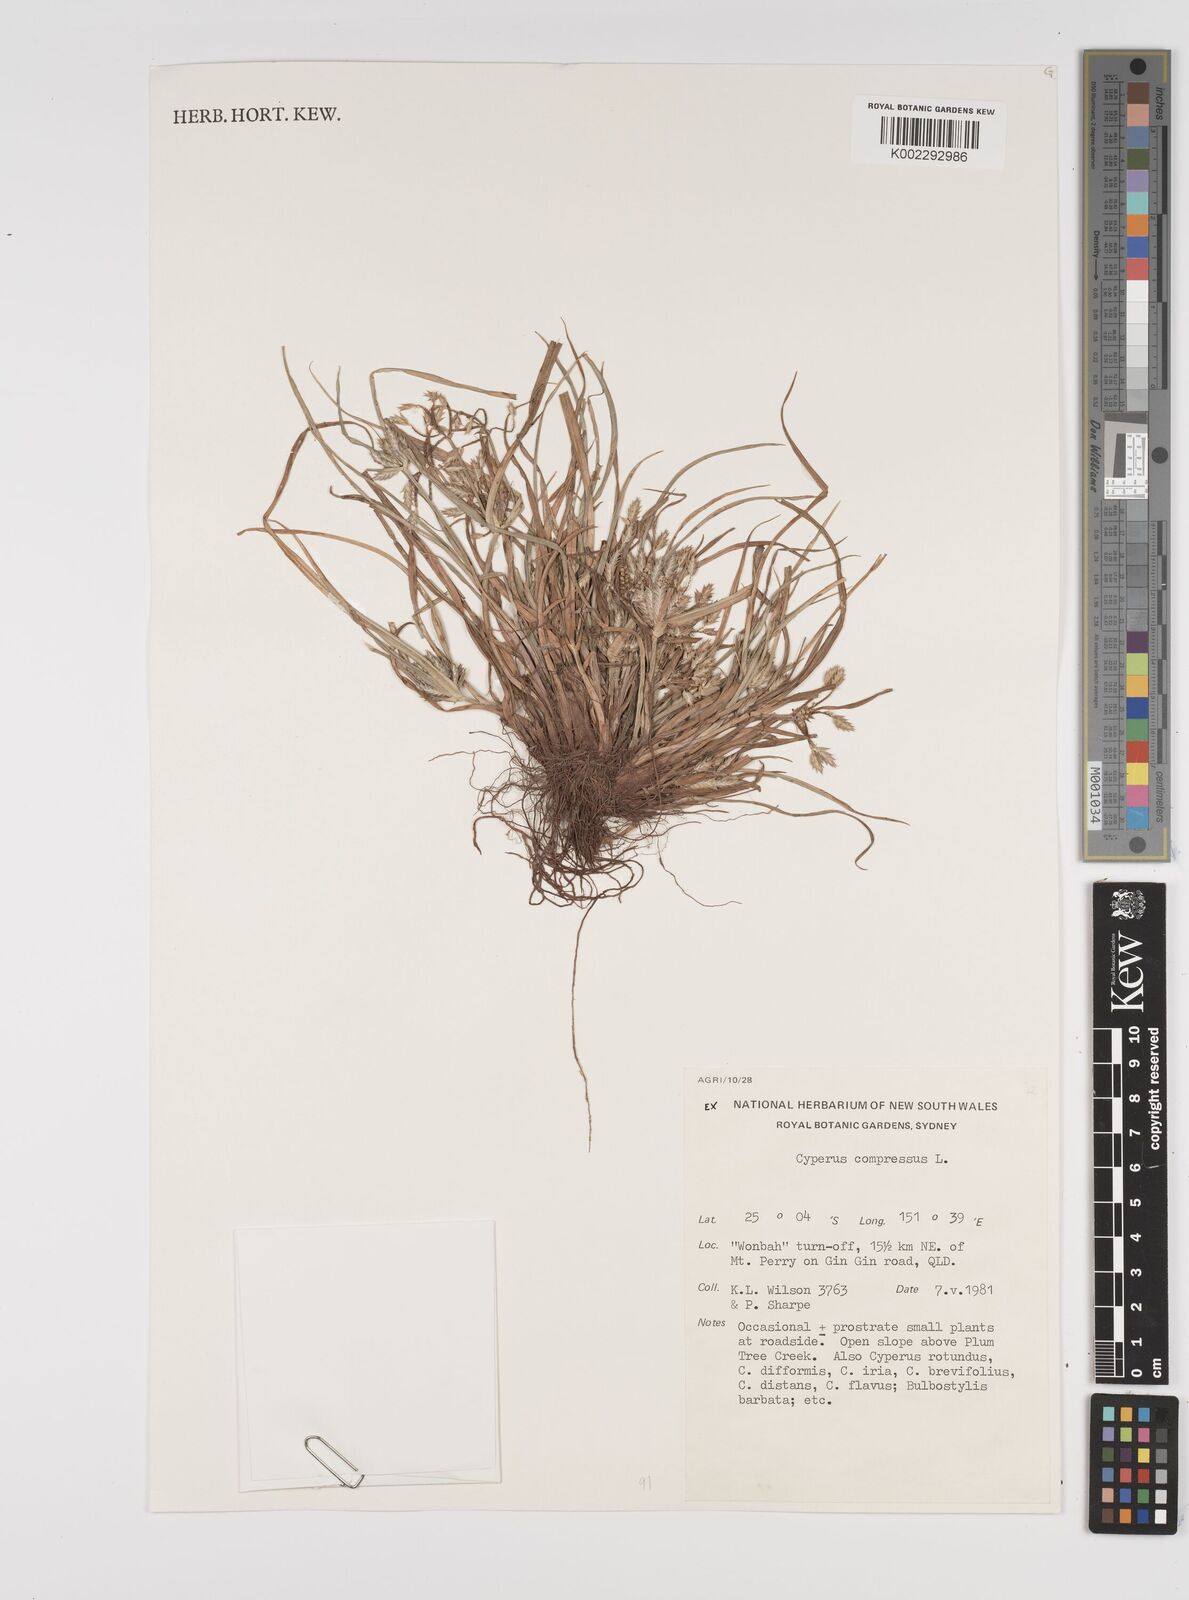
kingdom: Plantae
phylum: Tracheophyta
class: Liliopsida
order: Poales
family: Cyperaceae
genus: Cyperus
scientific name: Cyperus compressus
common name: Poorland flatsedge
